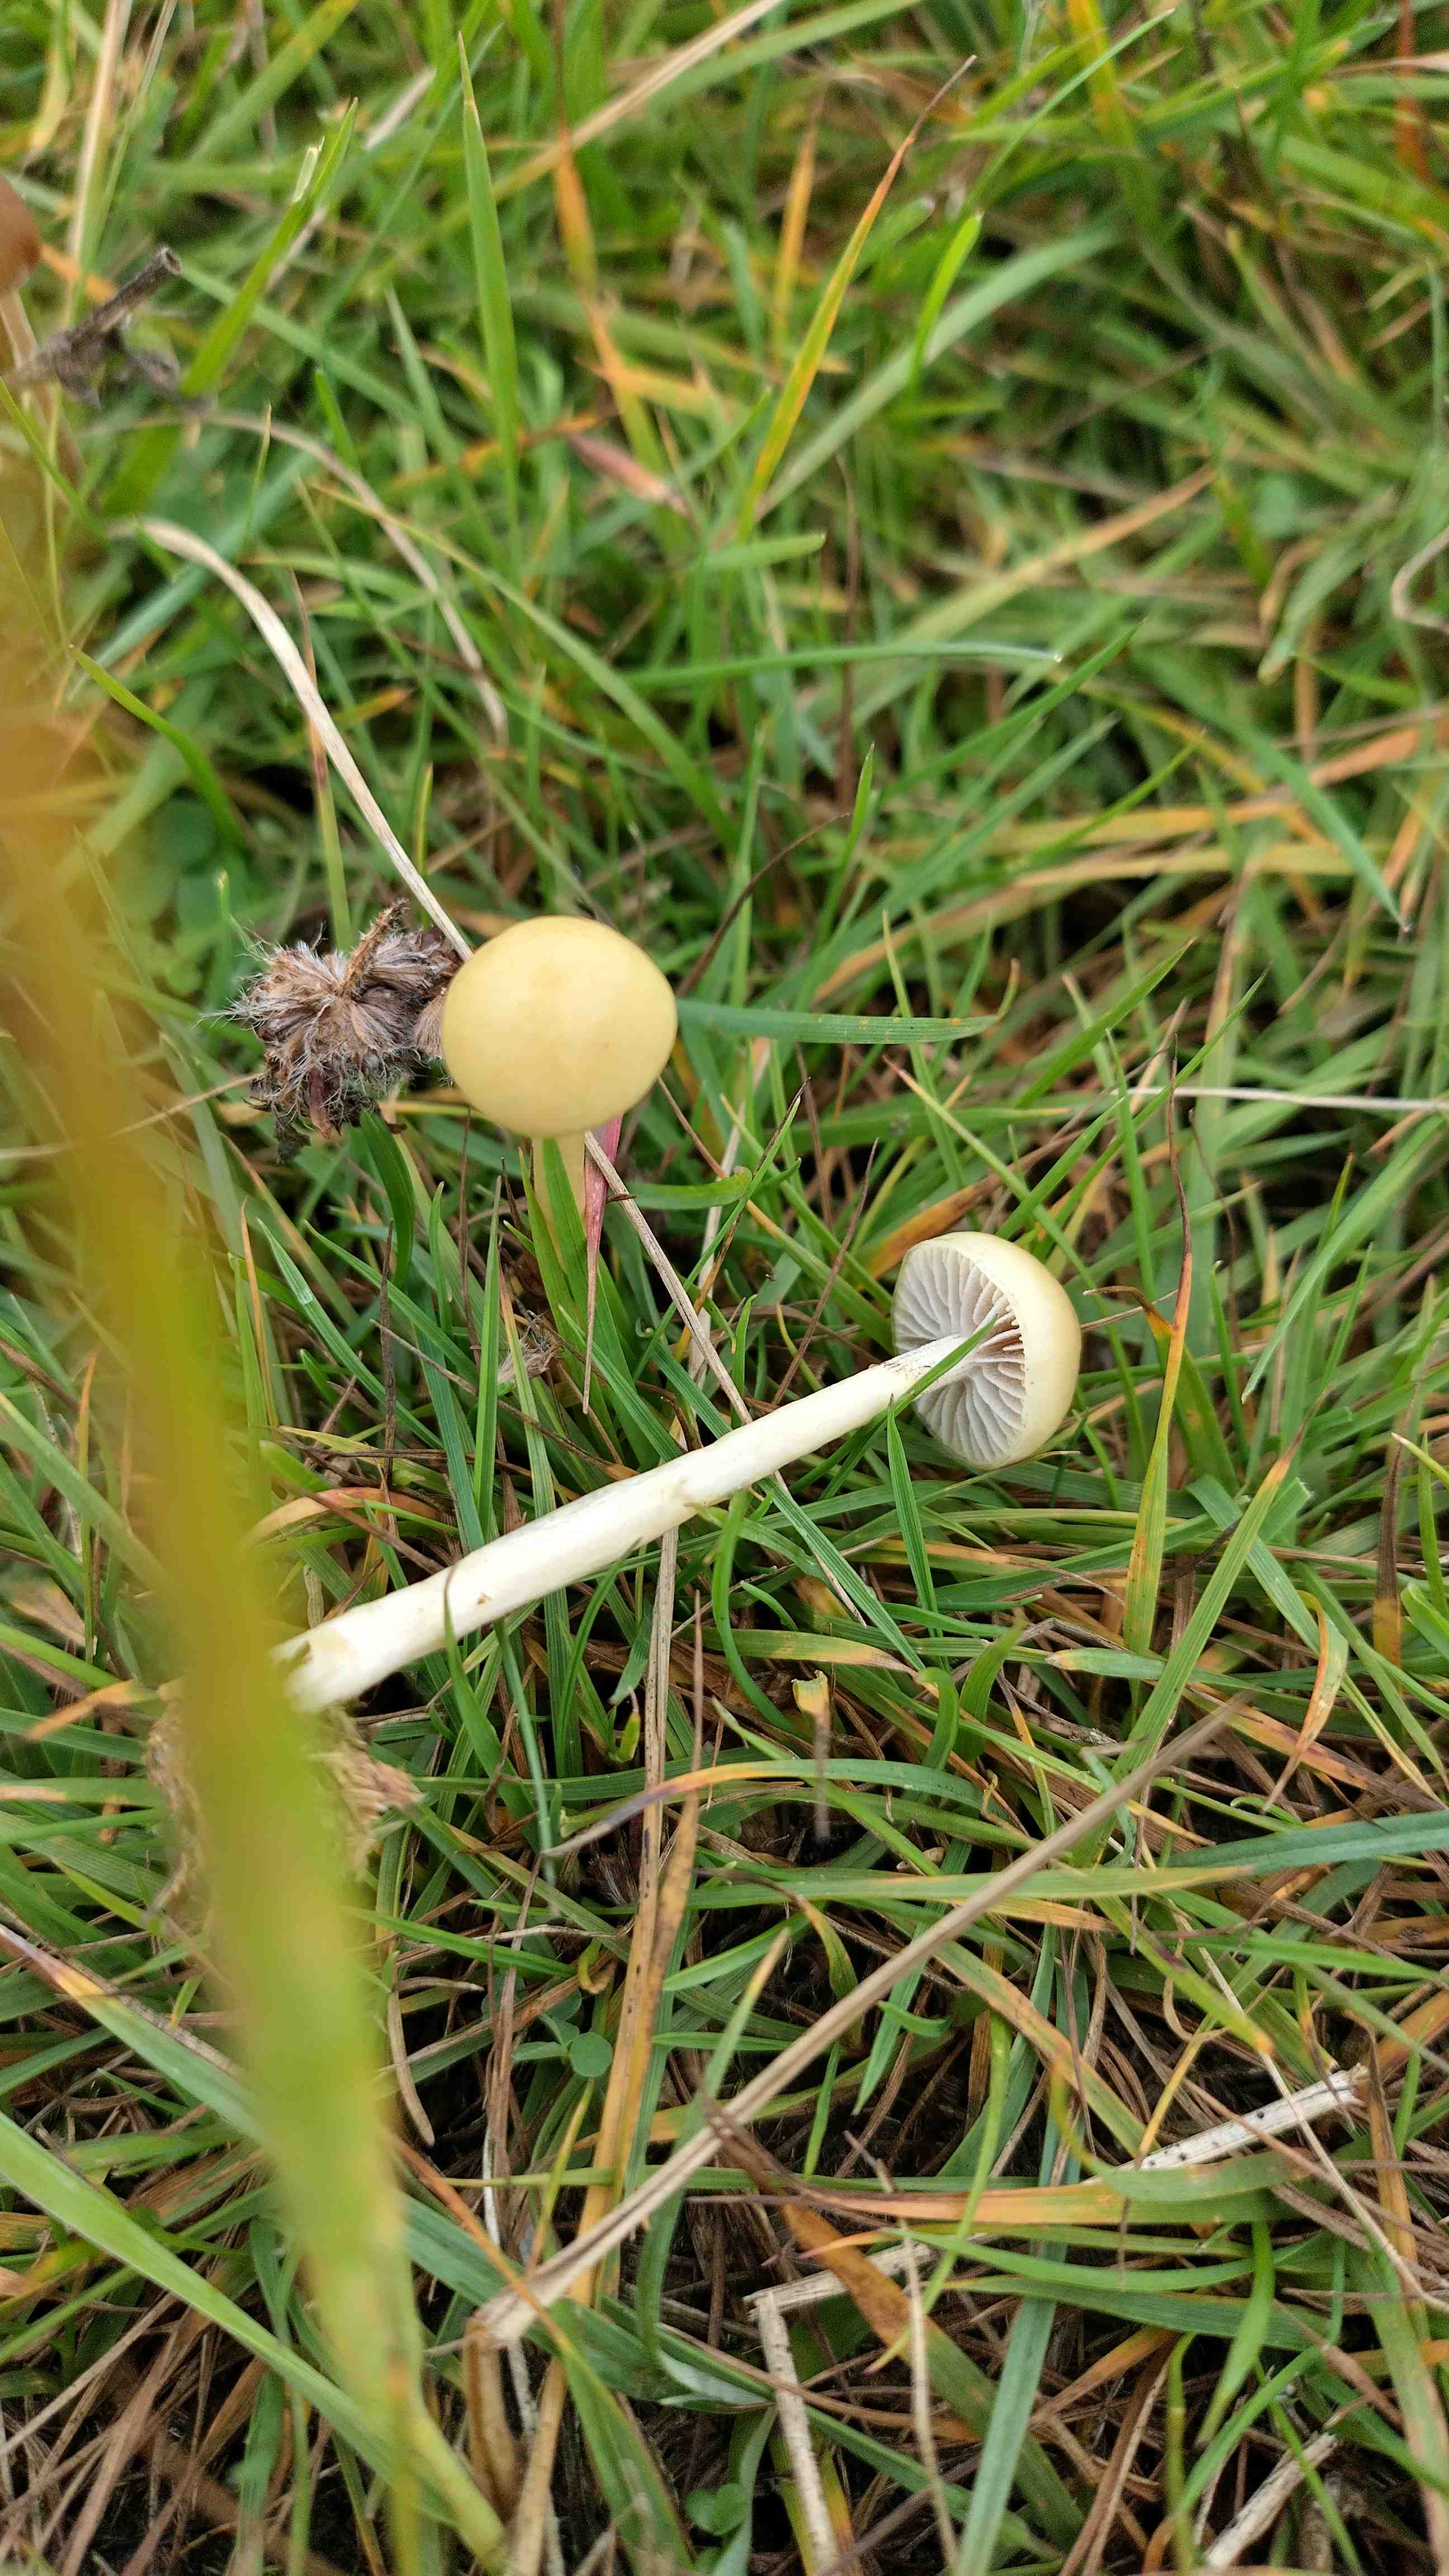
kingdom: Fungi
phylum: Basidiomycota
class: Agaricomycetes
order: Agaricales
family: Strophariaceae
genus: Protostropharia
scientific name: Protostropharia semiglobata
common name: halvkugleformet bredblad
